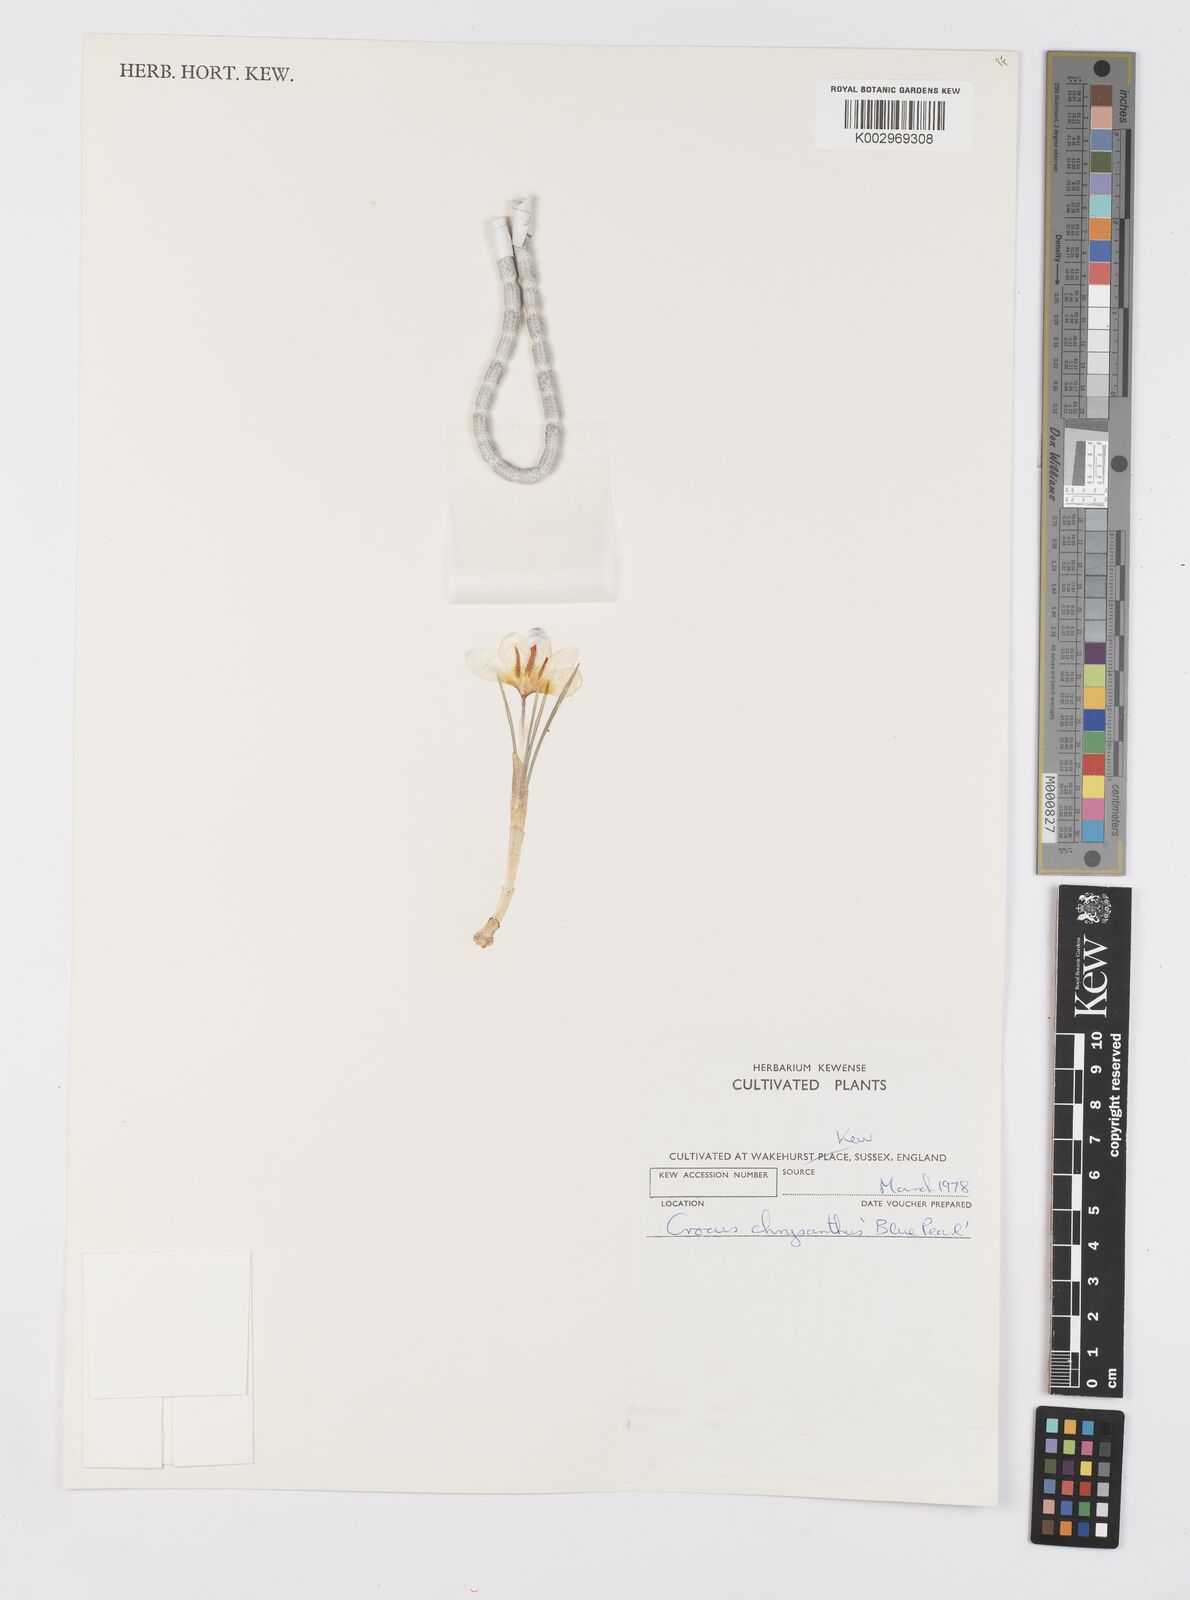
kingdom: Plantae
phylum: Tracheophyta
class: Liliopsida
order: Asparagales
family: Iridaceae
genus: Crocus
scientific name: Crocus chrysanthus
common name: Golden crocus
